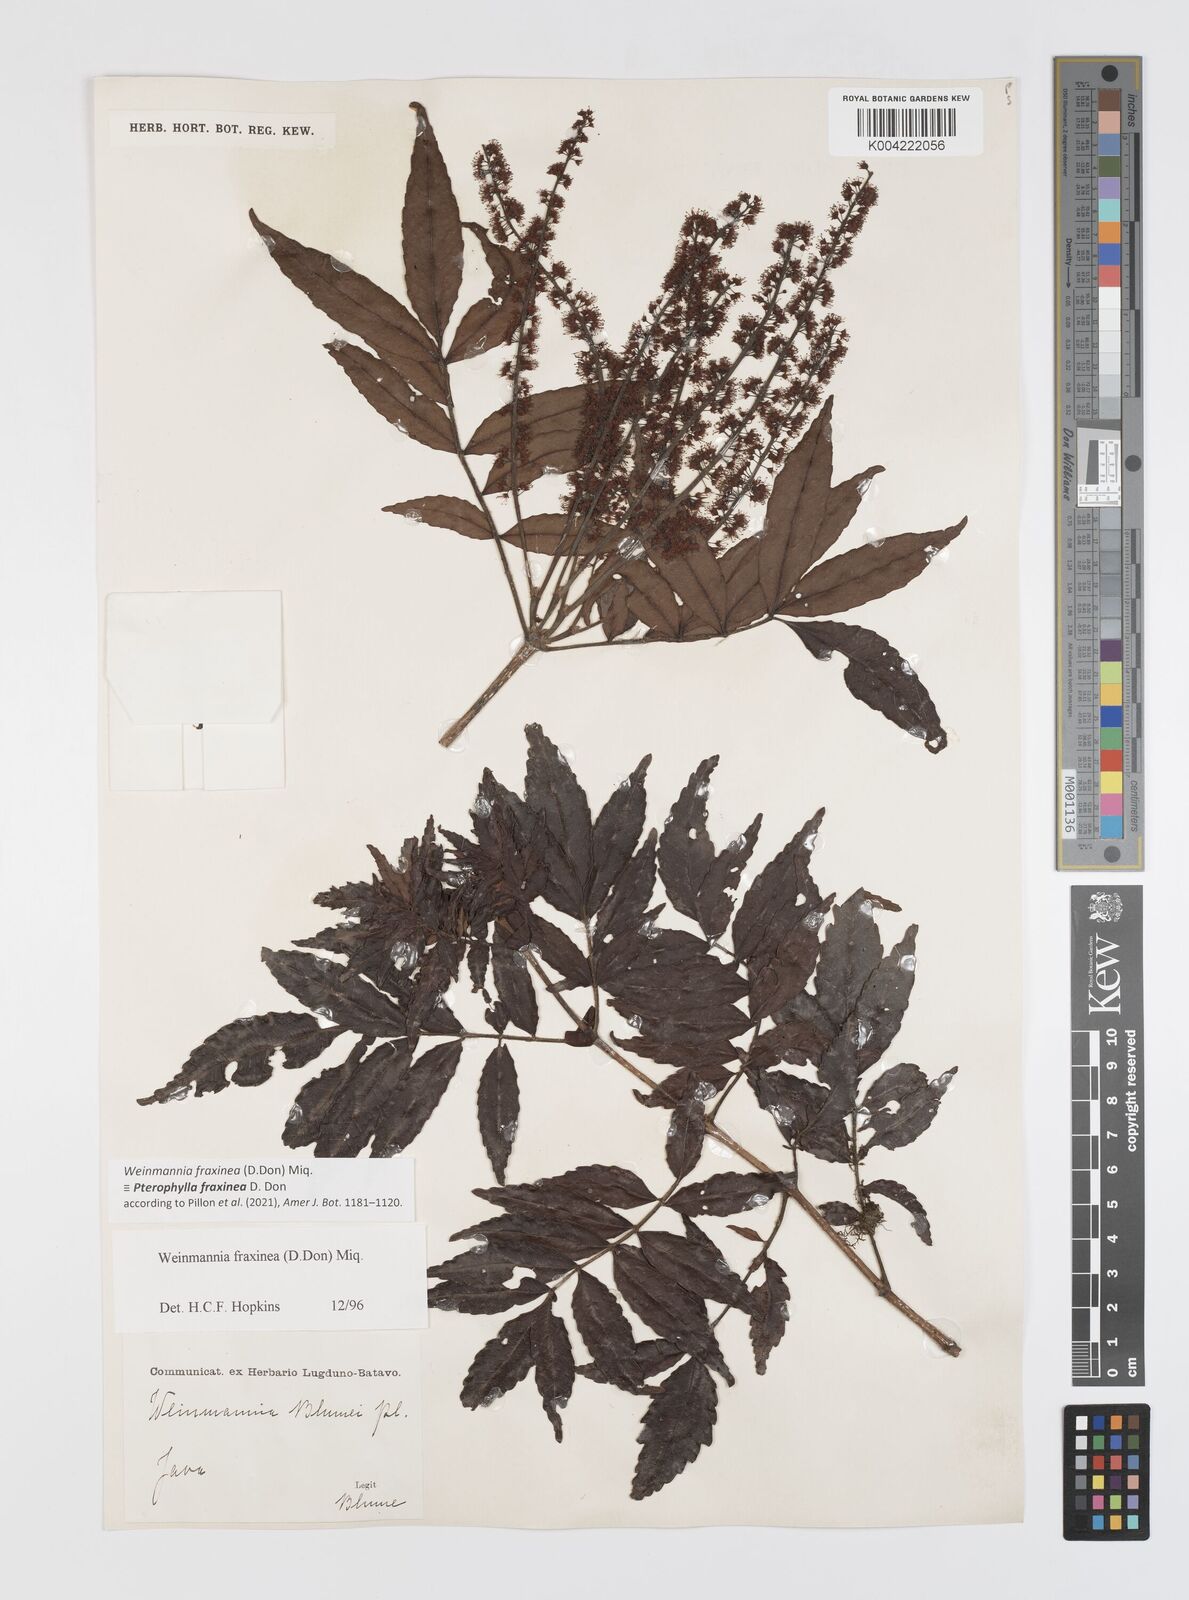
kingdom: Plantae
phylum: Tracheophyta
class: Magnoliopsida
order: Oxalidales
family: Cunoniaceae
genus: Pterophylla
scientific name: Pterophylla fraxinea
